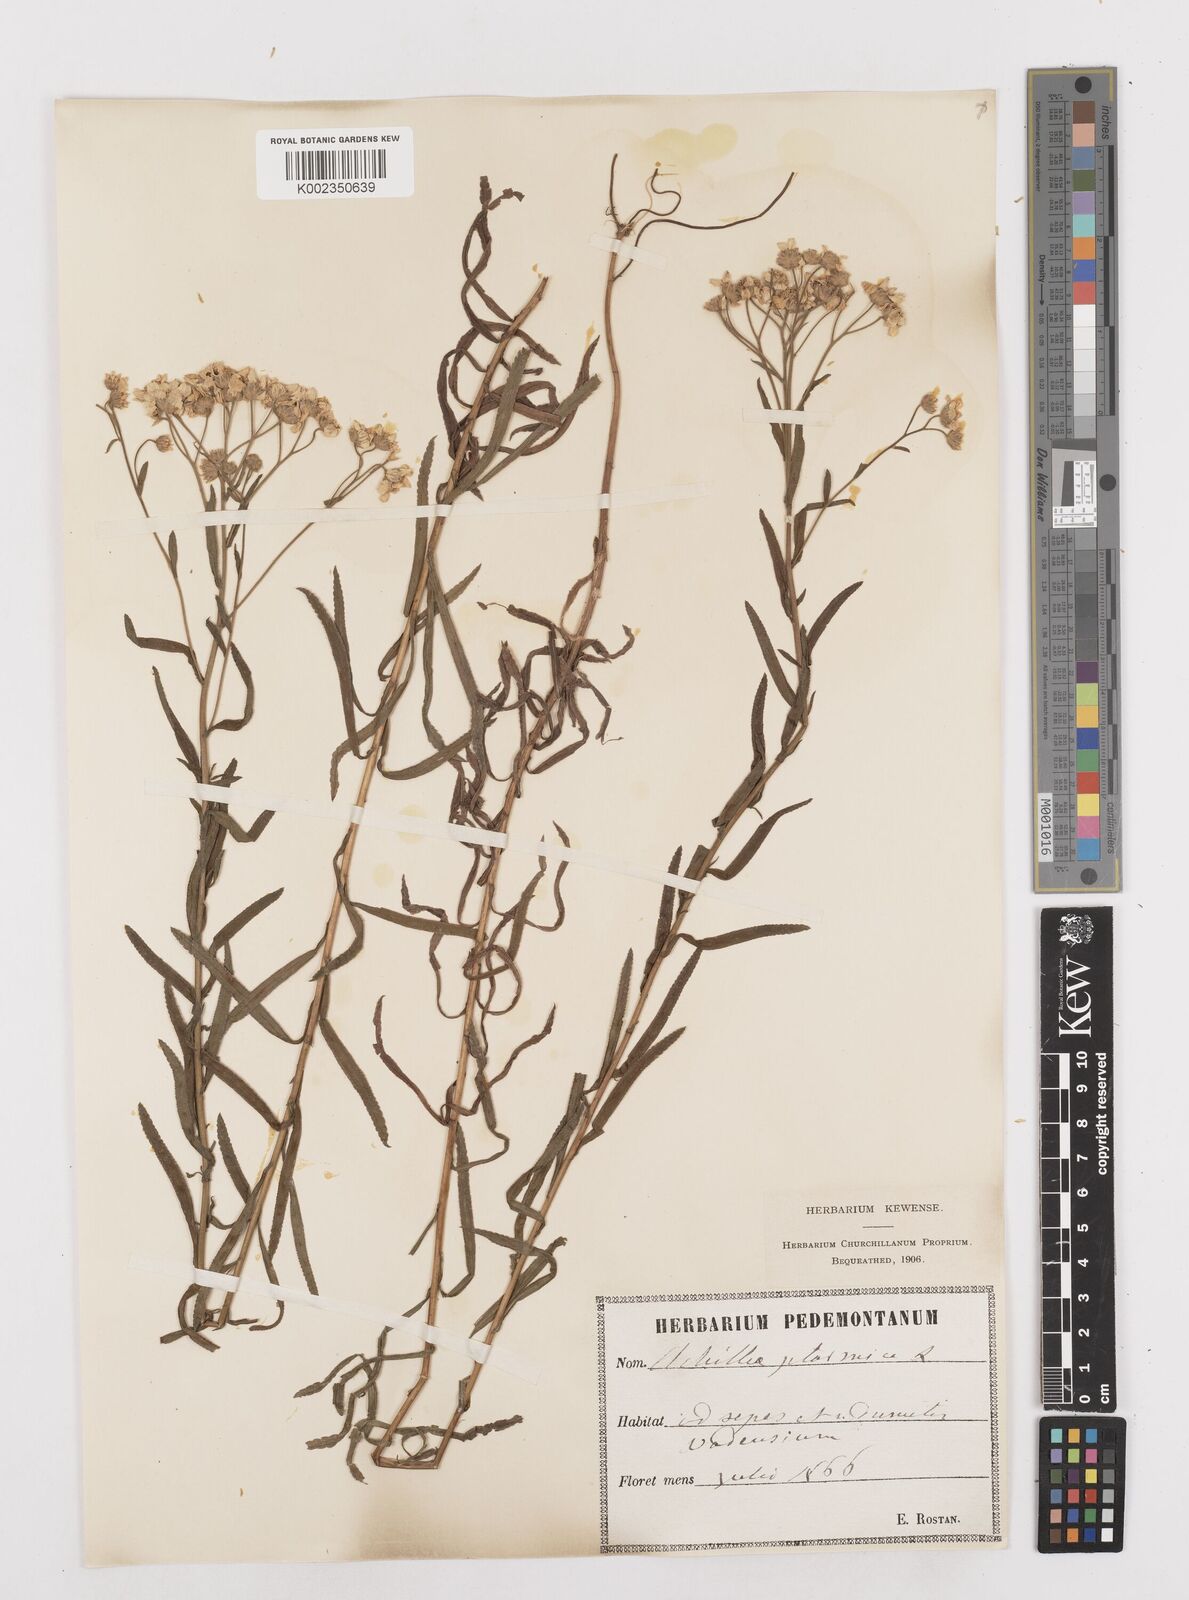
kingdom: Plantae
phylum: Tracheophyta
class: Magnoliopsida
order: Asterales
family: Asteraceae
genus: Achillea
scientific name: Achillea ptarmica
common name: Sneezeweed
